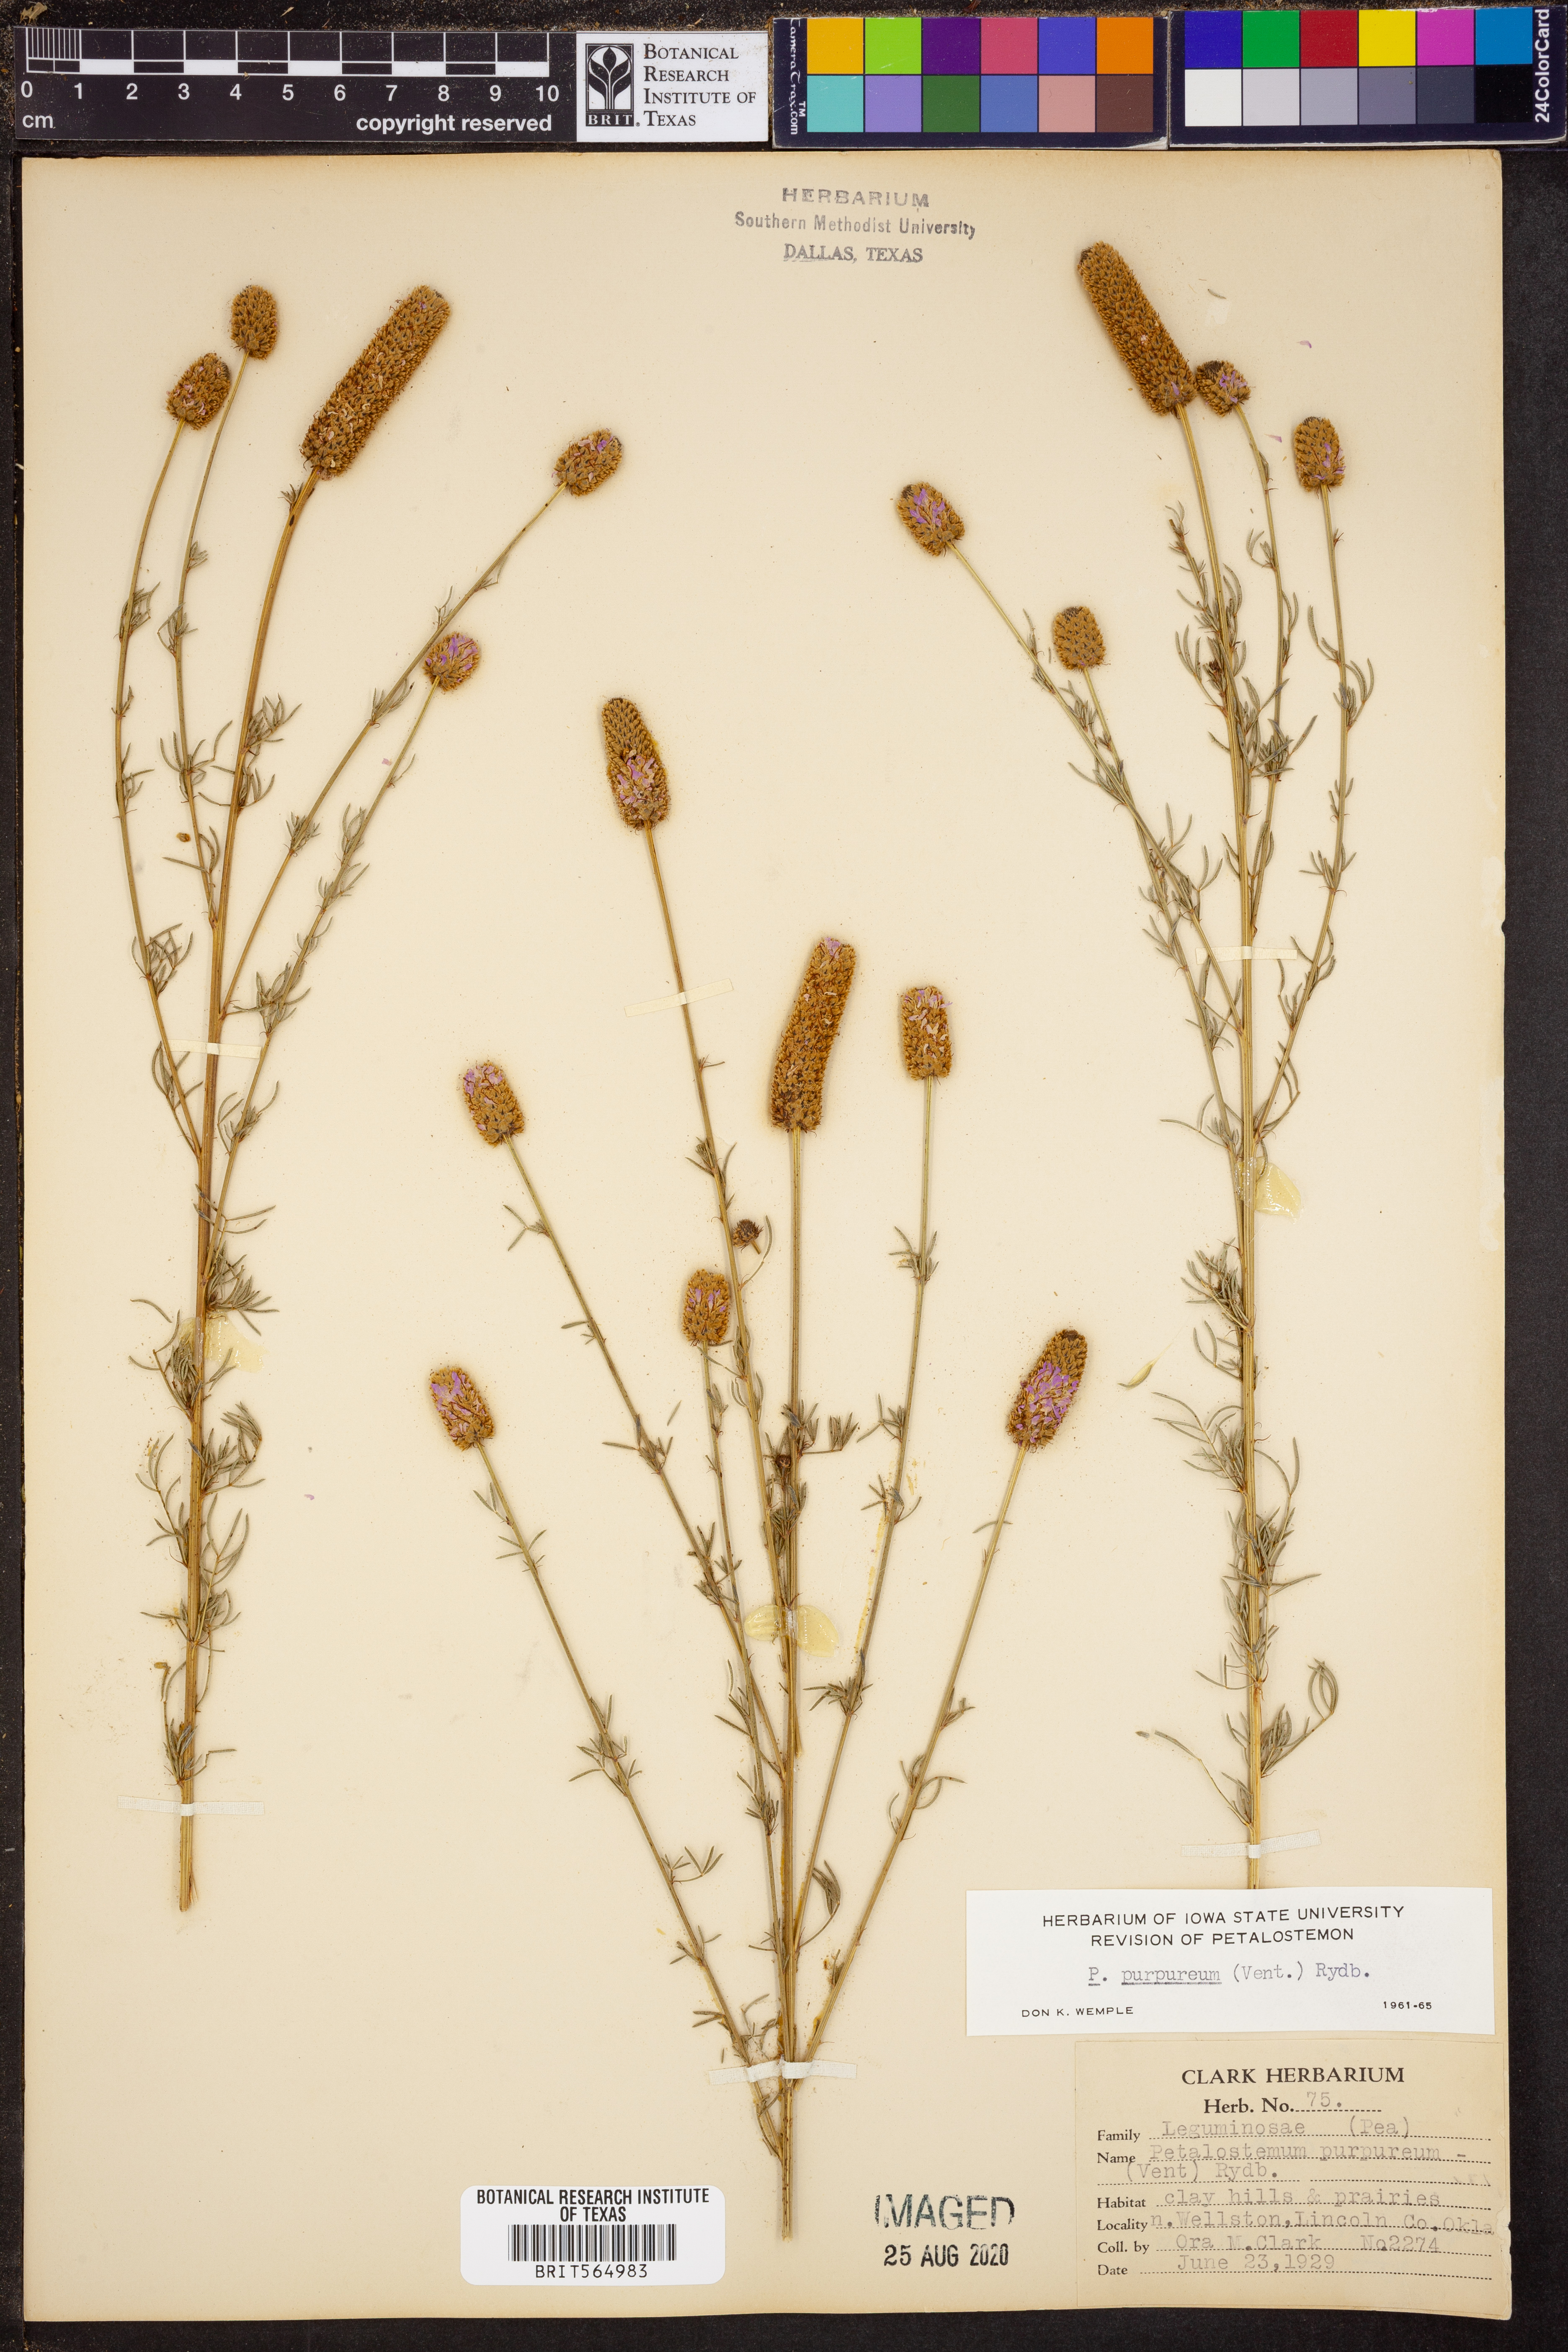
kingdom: Plantae
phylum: Tracheophyta
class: Magnoliopsida
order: Fabales
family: Fabaceae
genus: Dalea
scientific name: Dalea purpurea
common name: Purple prairie-clover
